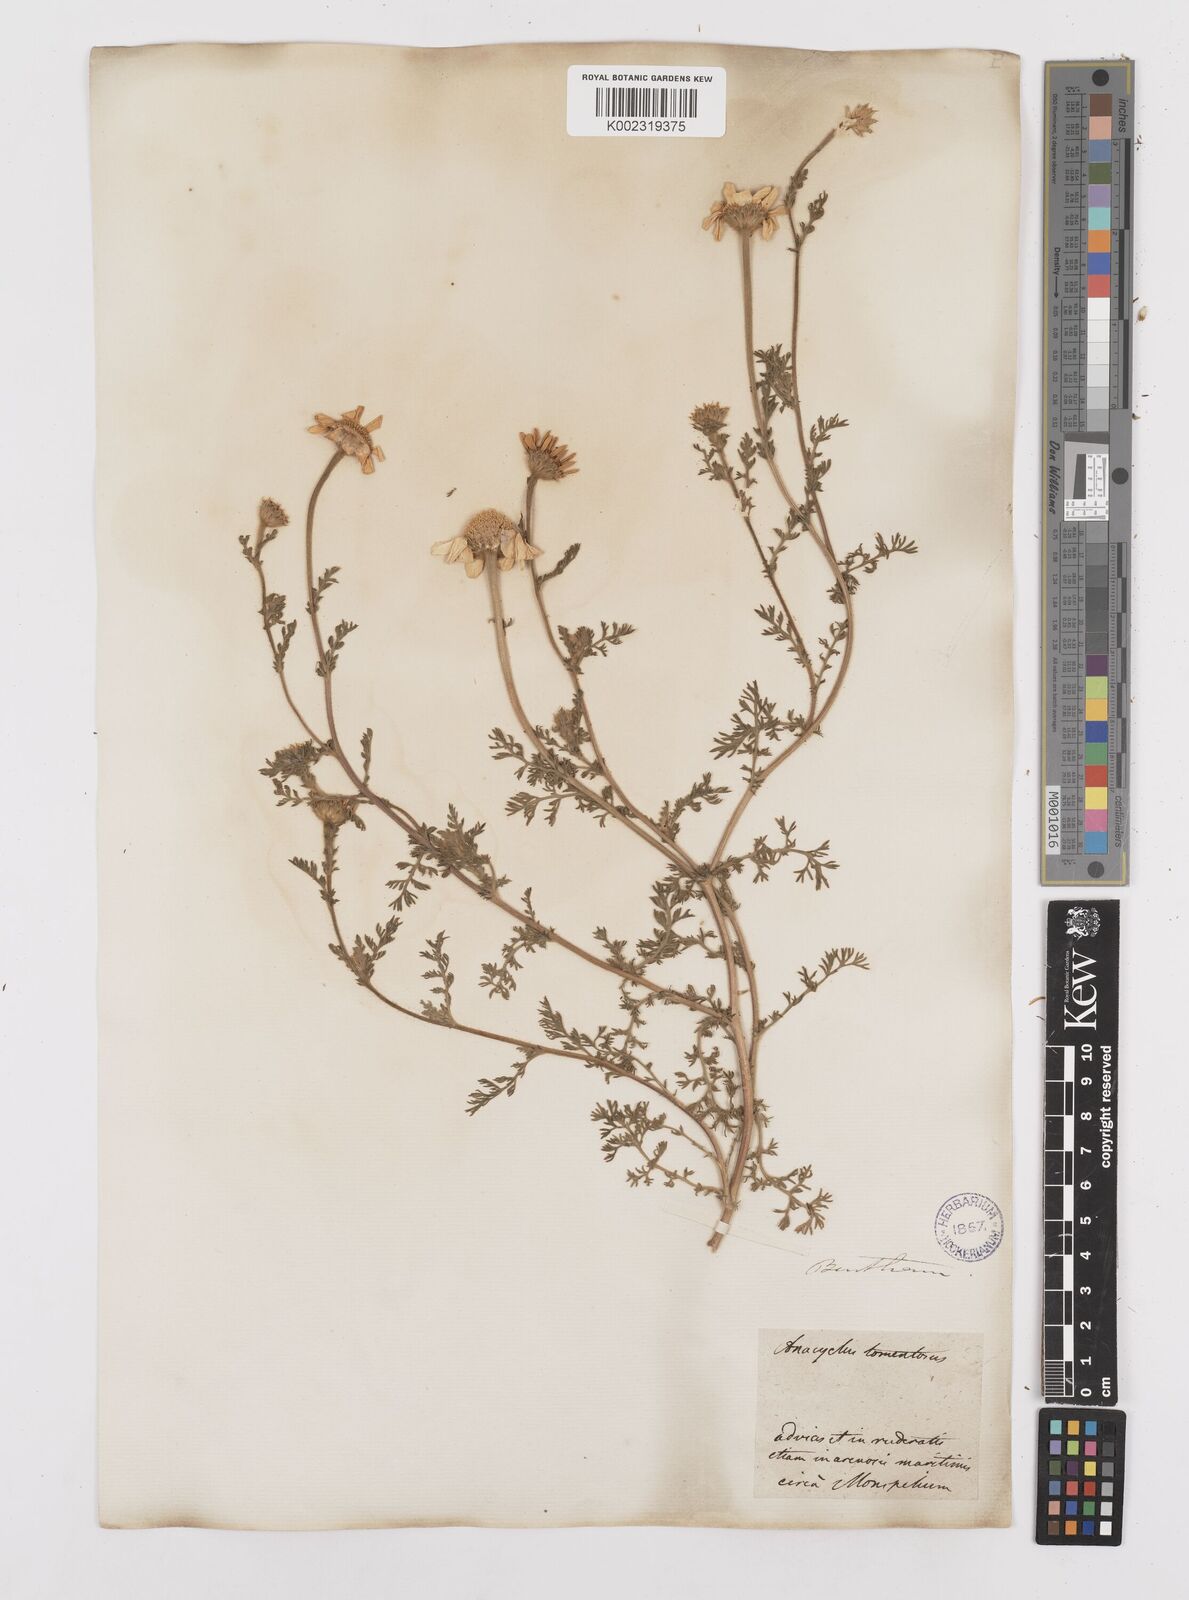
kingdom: Plantae
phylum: Tracheophyta
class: Magnoliopsida
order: Asterales
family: Asteraceae
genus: Anacyclus
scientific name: Anacyclus clavatus
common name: Whitebuttons
